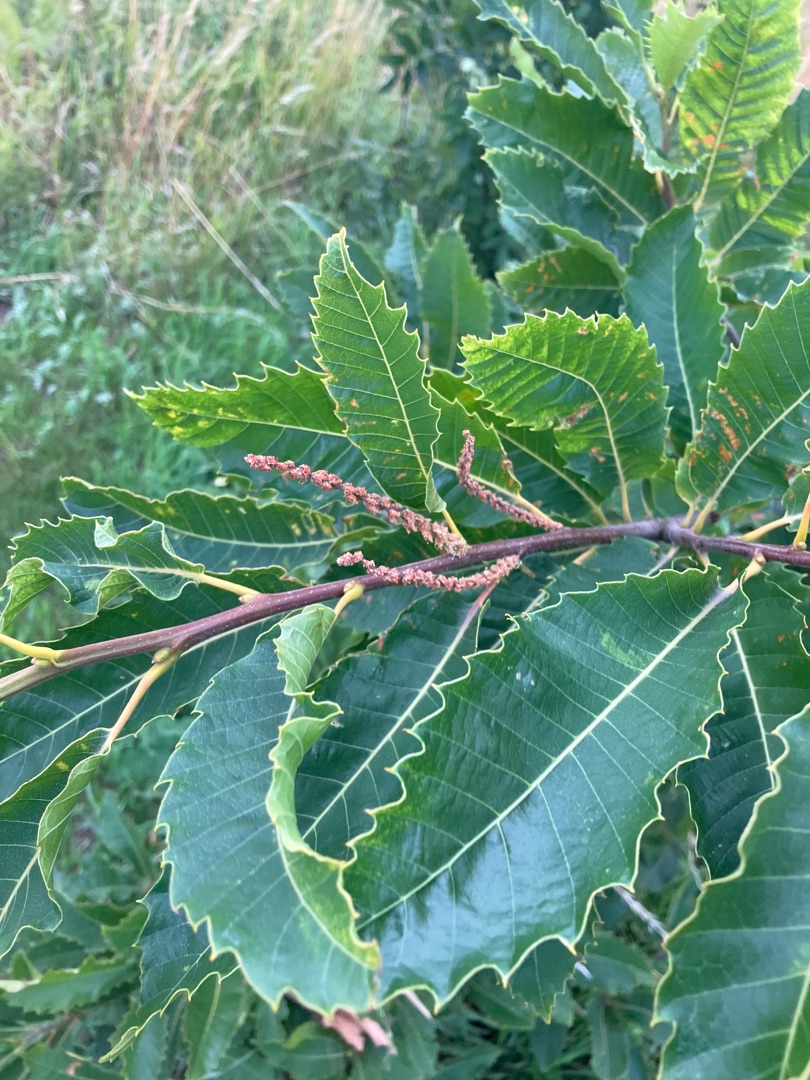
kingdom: Plantae
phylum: Tracheophyta
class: Magnoliopsida
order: Fagales
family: Fagaceae
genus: Castanea
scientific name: Castanea sativa
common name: Ægte kastanie
